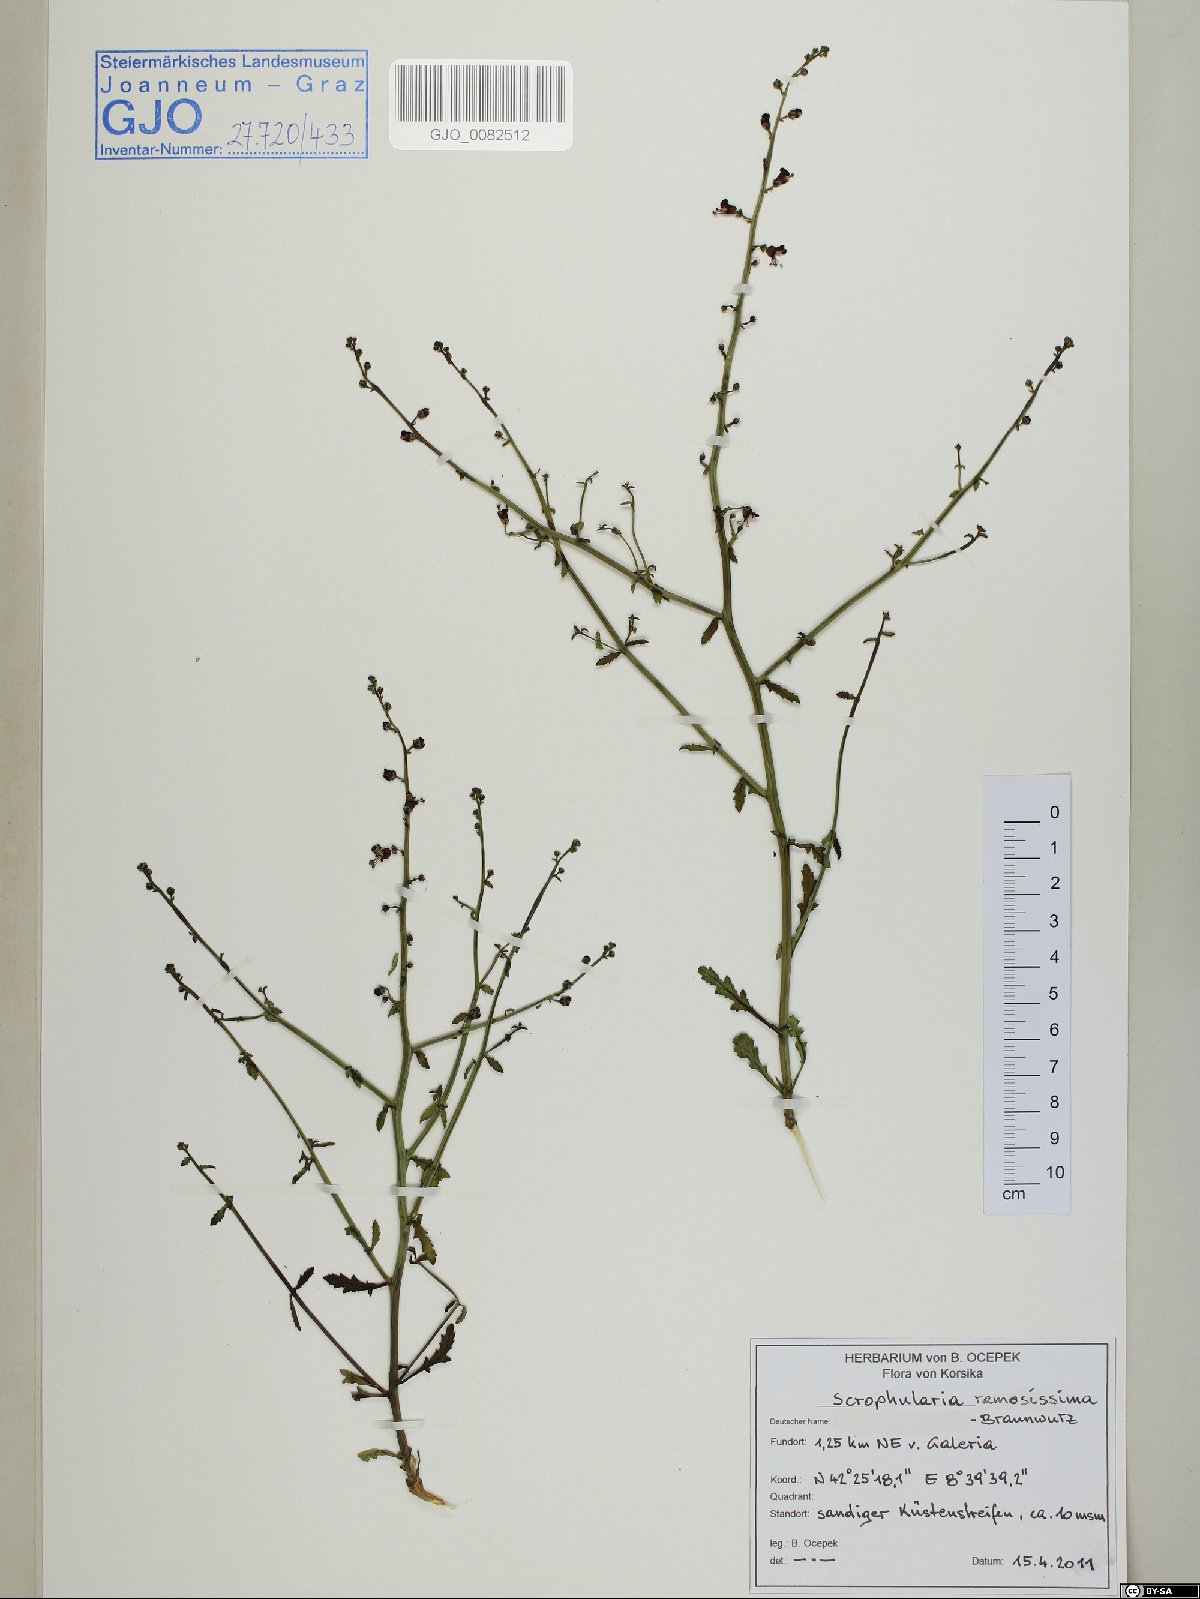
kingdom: Plantae
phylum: Tracheophyta
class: Magnoliopsida
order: Lamiales
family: Scrophulariaceae
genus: Scrophularia
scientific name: Scrophularia canina
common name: French figwort
